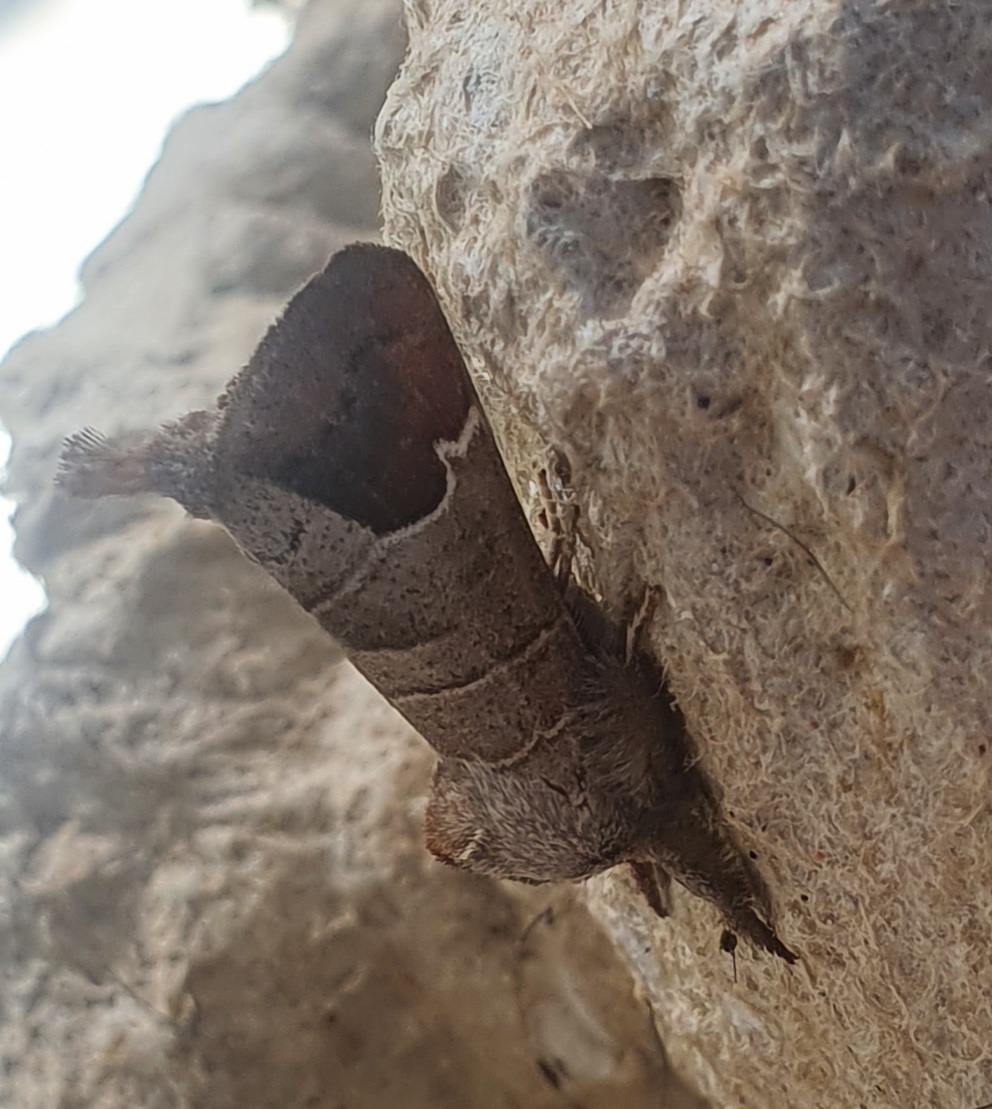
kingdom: Animalia
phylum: Arthropoda
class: Insecta
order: Lepidoptera
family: Notodontidae
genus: Clostera
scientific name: Clostera curtula
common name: Lille måneplet
